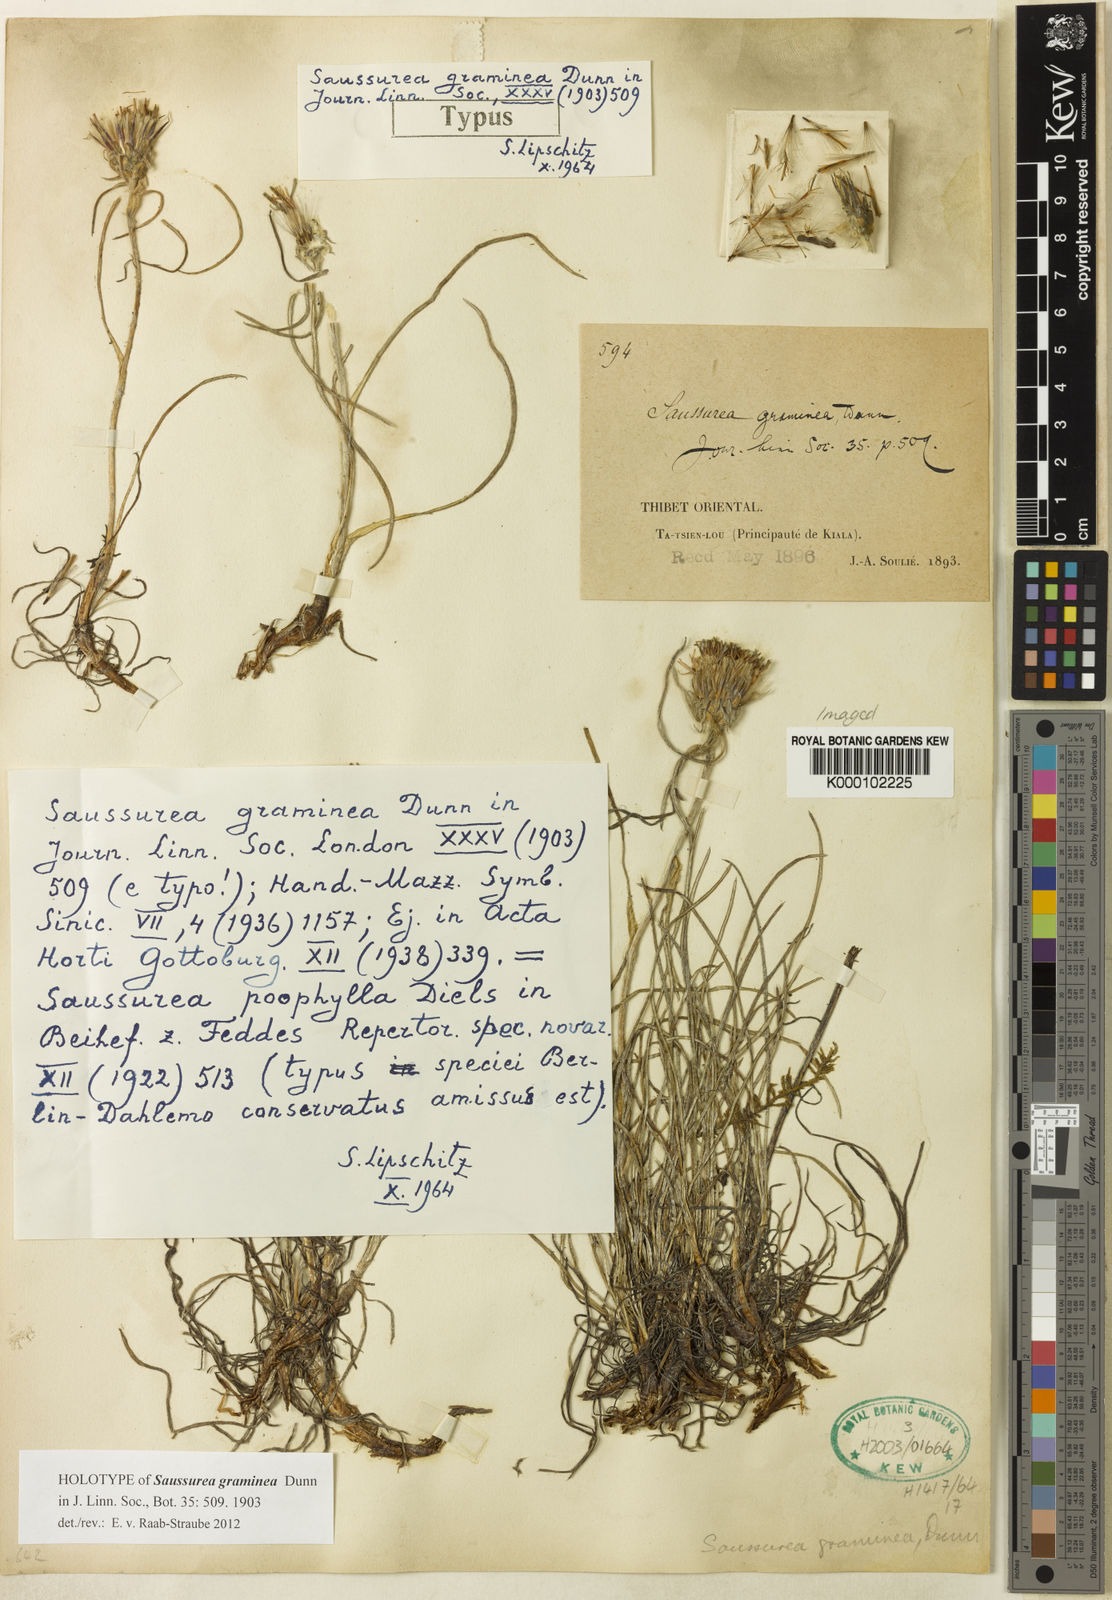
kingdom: Plantae
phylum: Tracheophyta
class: Magnoliopsida
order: Asterales
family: Asteraceae
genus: Saussurea
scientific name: Saussurea graminea
